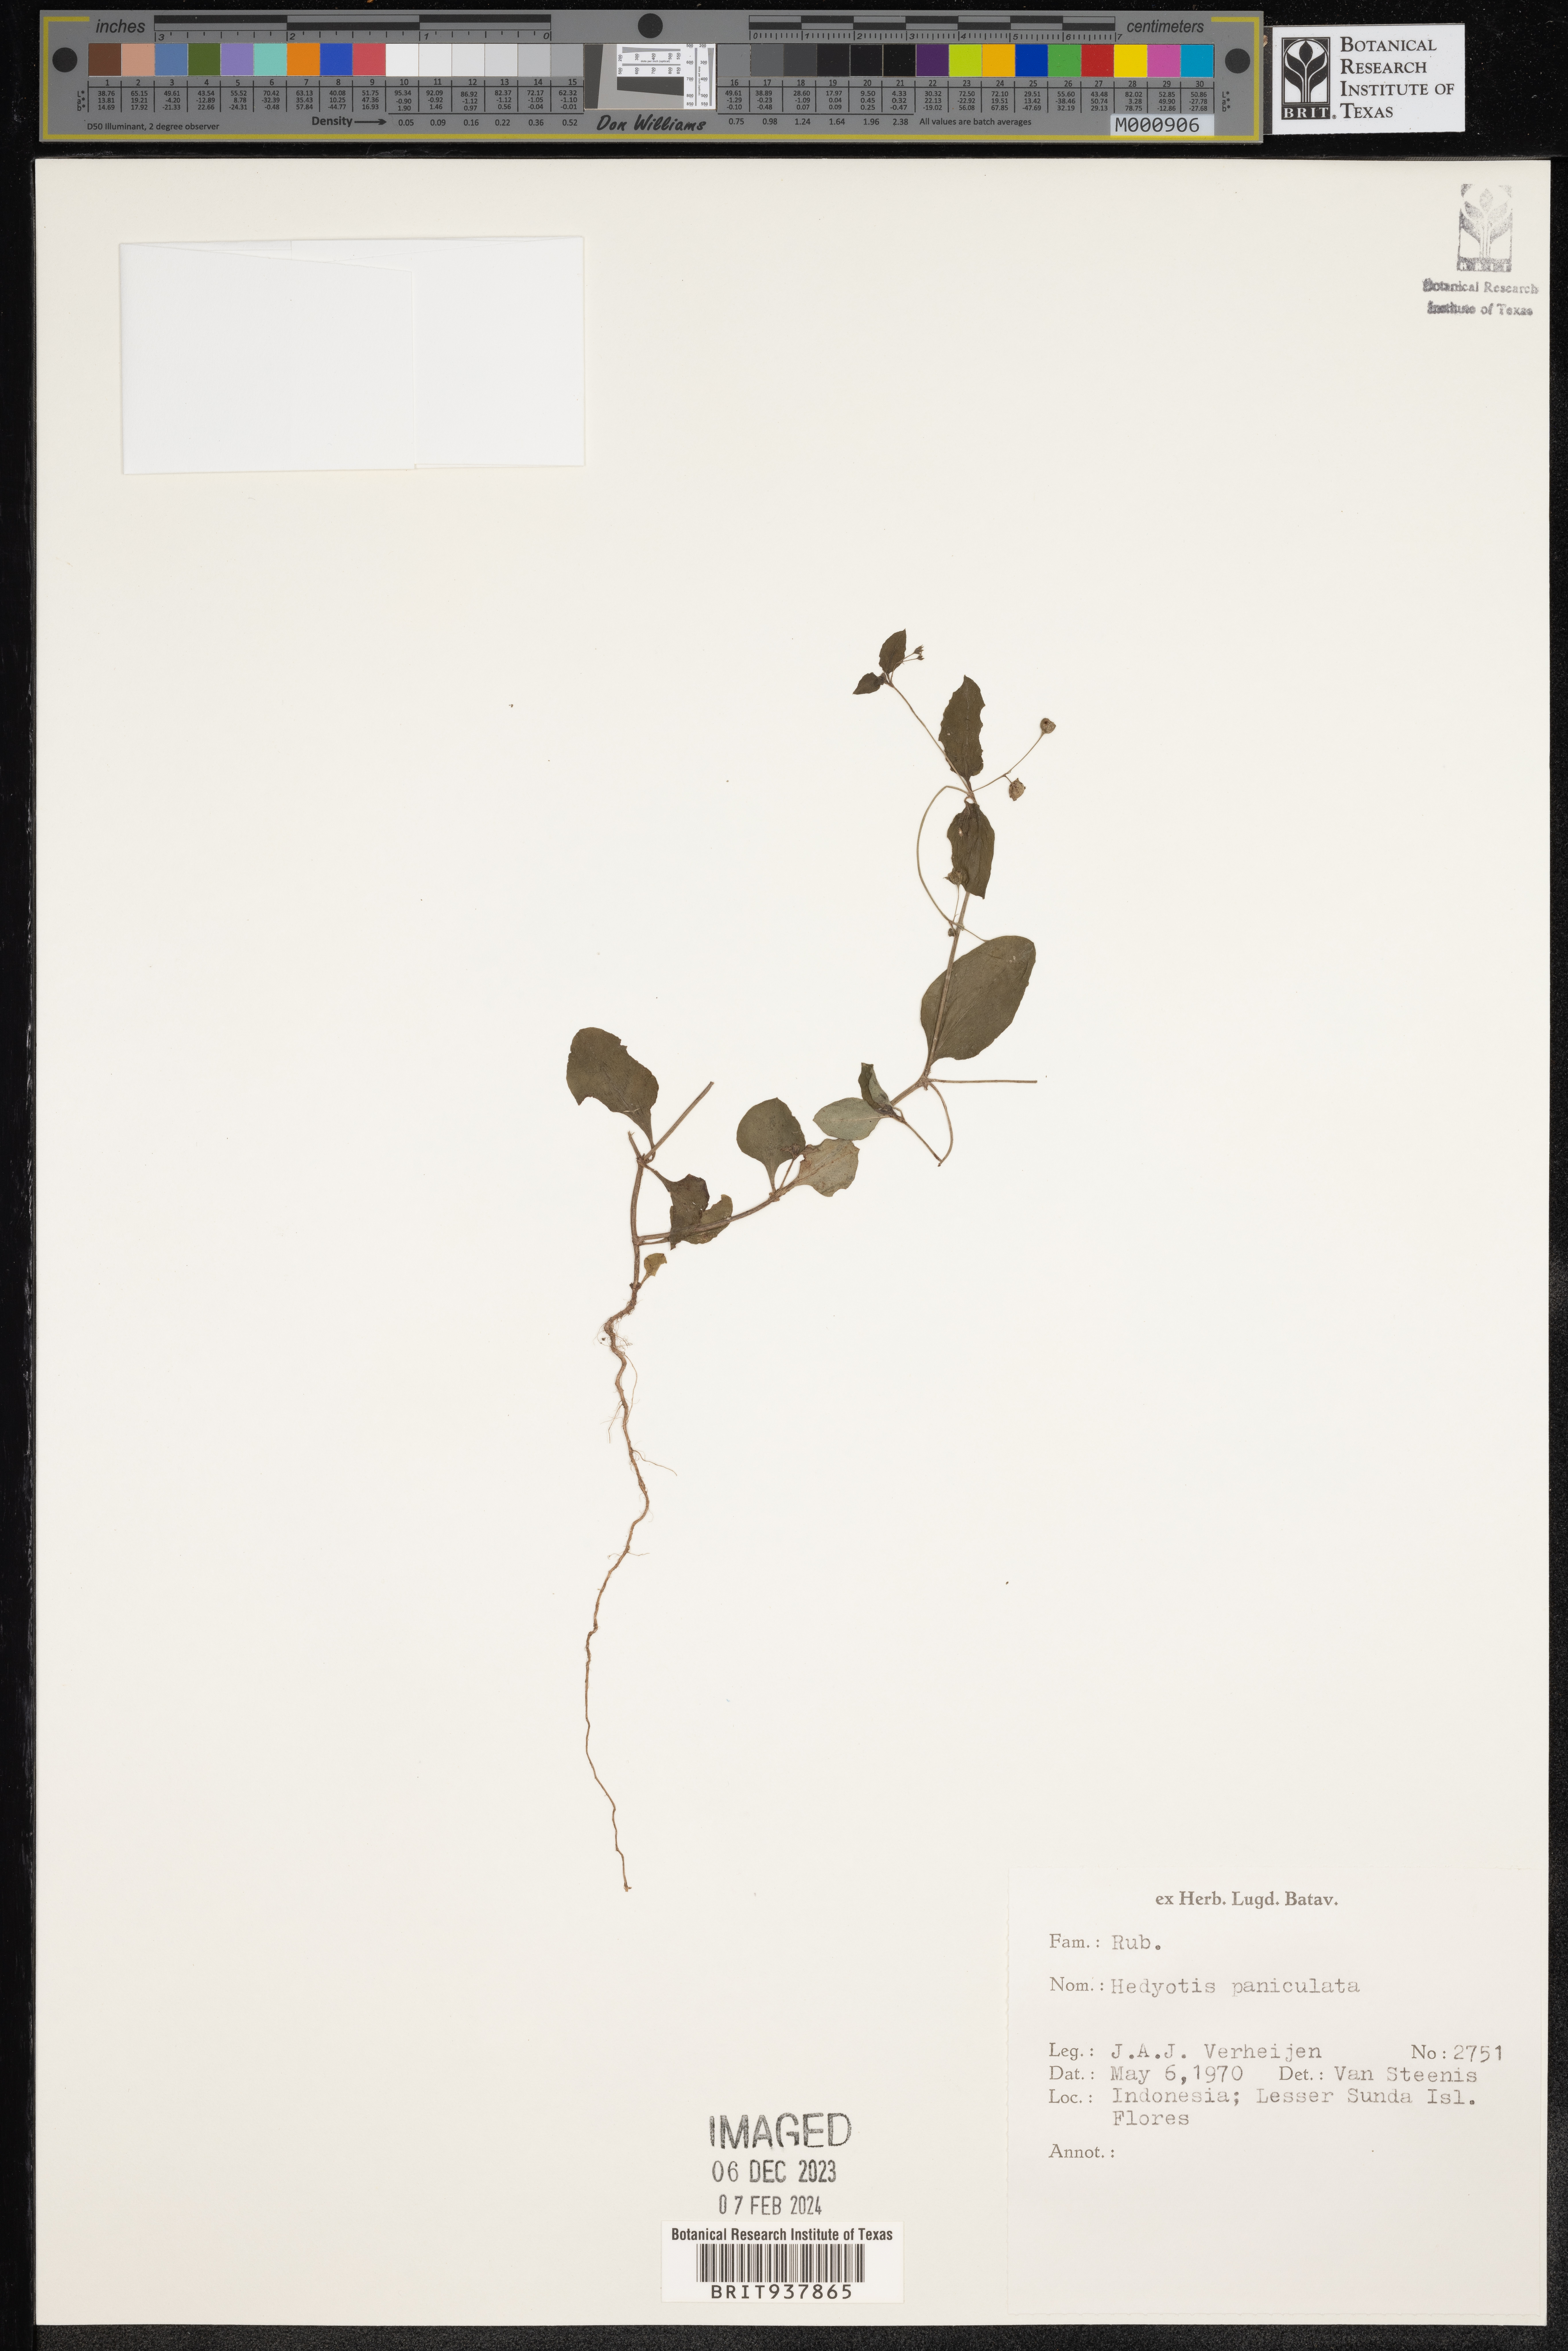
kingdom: Plantae
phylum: Tracheophyta
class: Magnoliopsida
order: Gentianales
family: Rubiaceae
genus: Hedyotis
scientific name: Hedyotis
